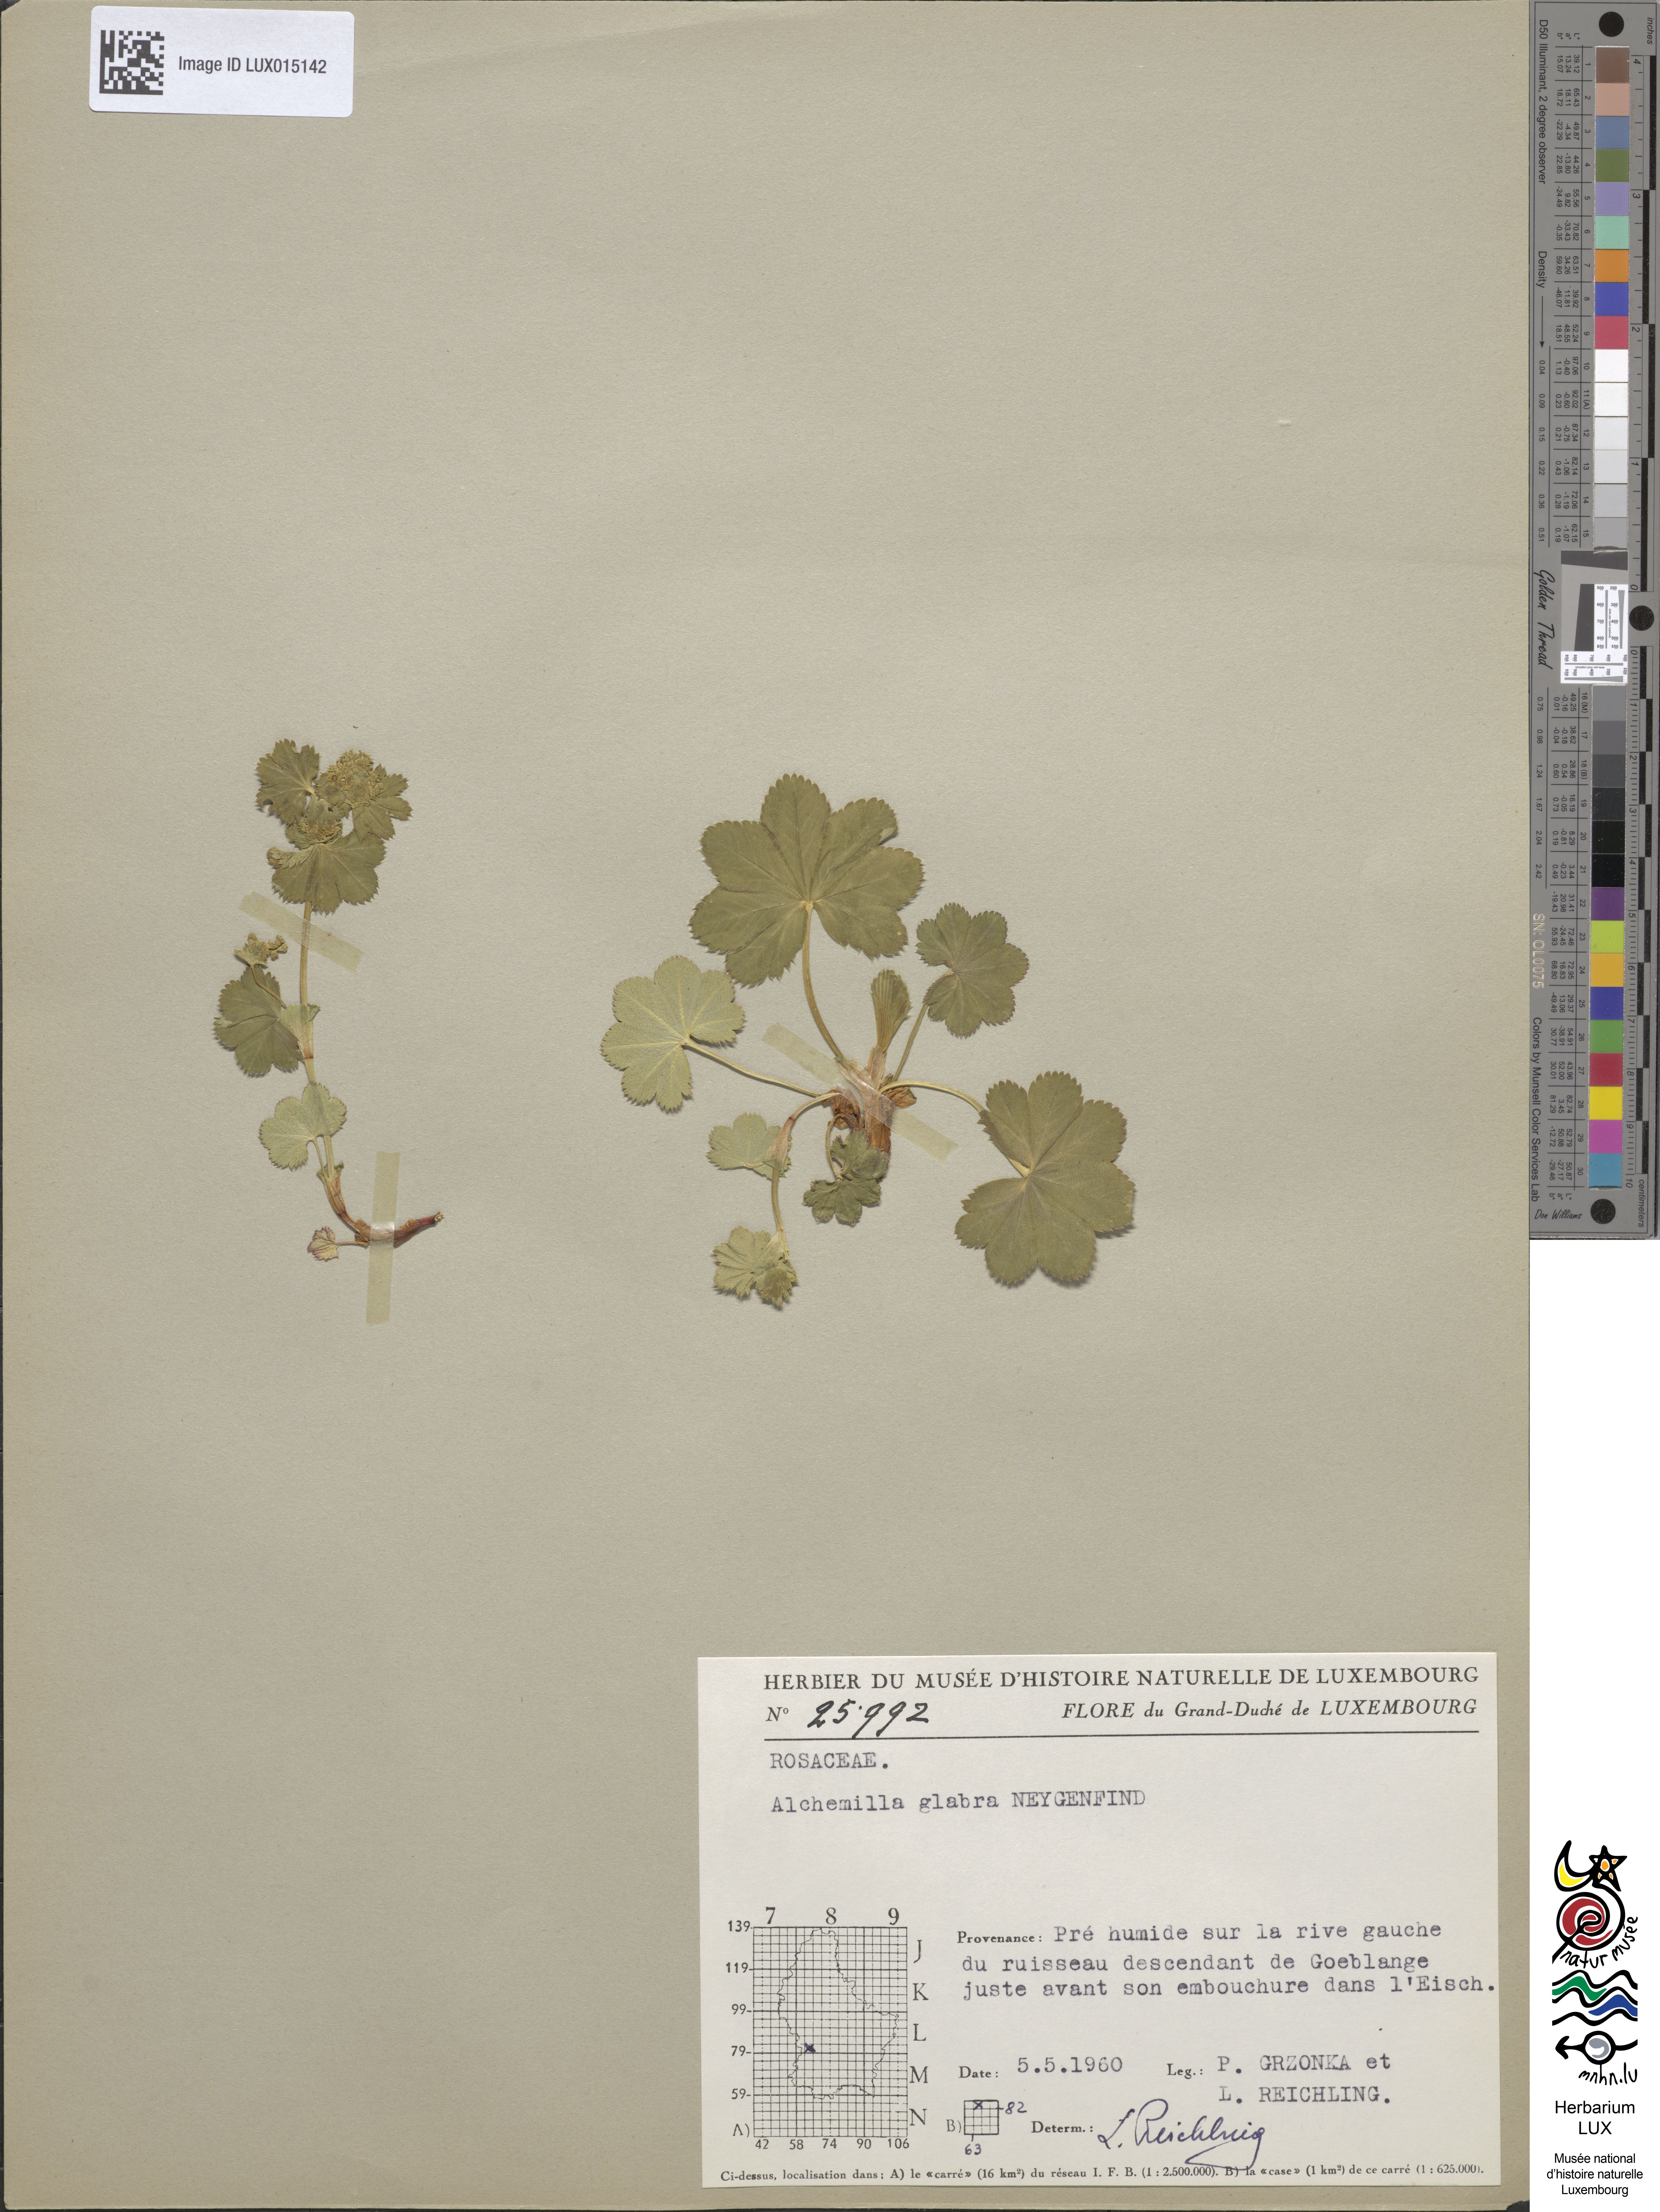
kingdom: Plantae
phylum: Tracheophyta
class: Magnoliopsida
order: Rosales
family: Rosaceae
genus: Alchemilla
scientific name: Alchemilla glabra
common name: Smooth lady's-mantle
